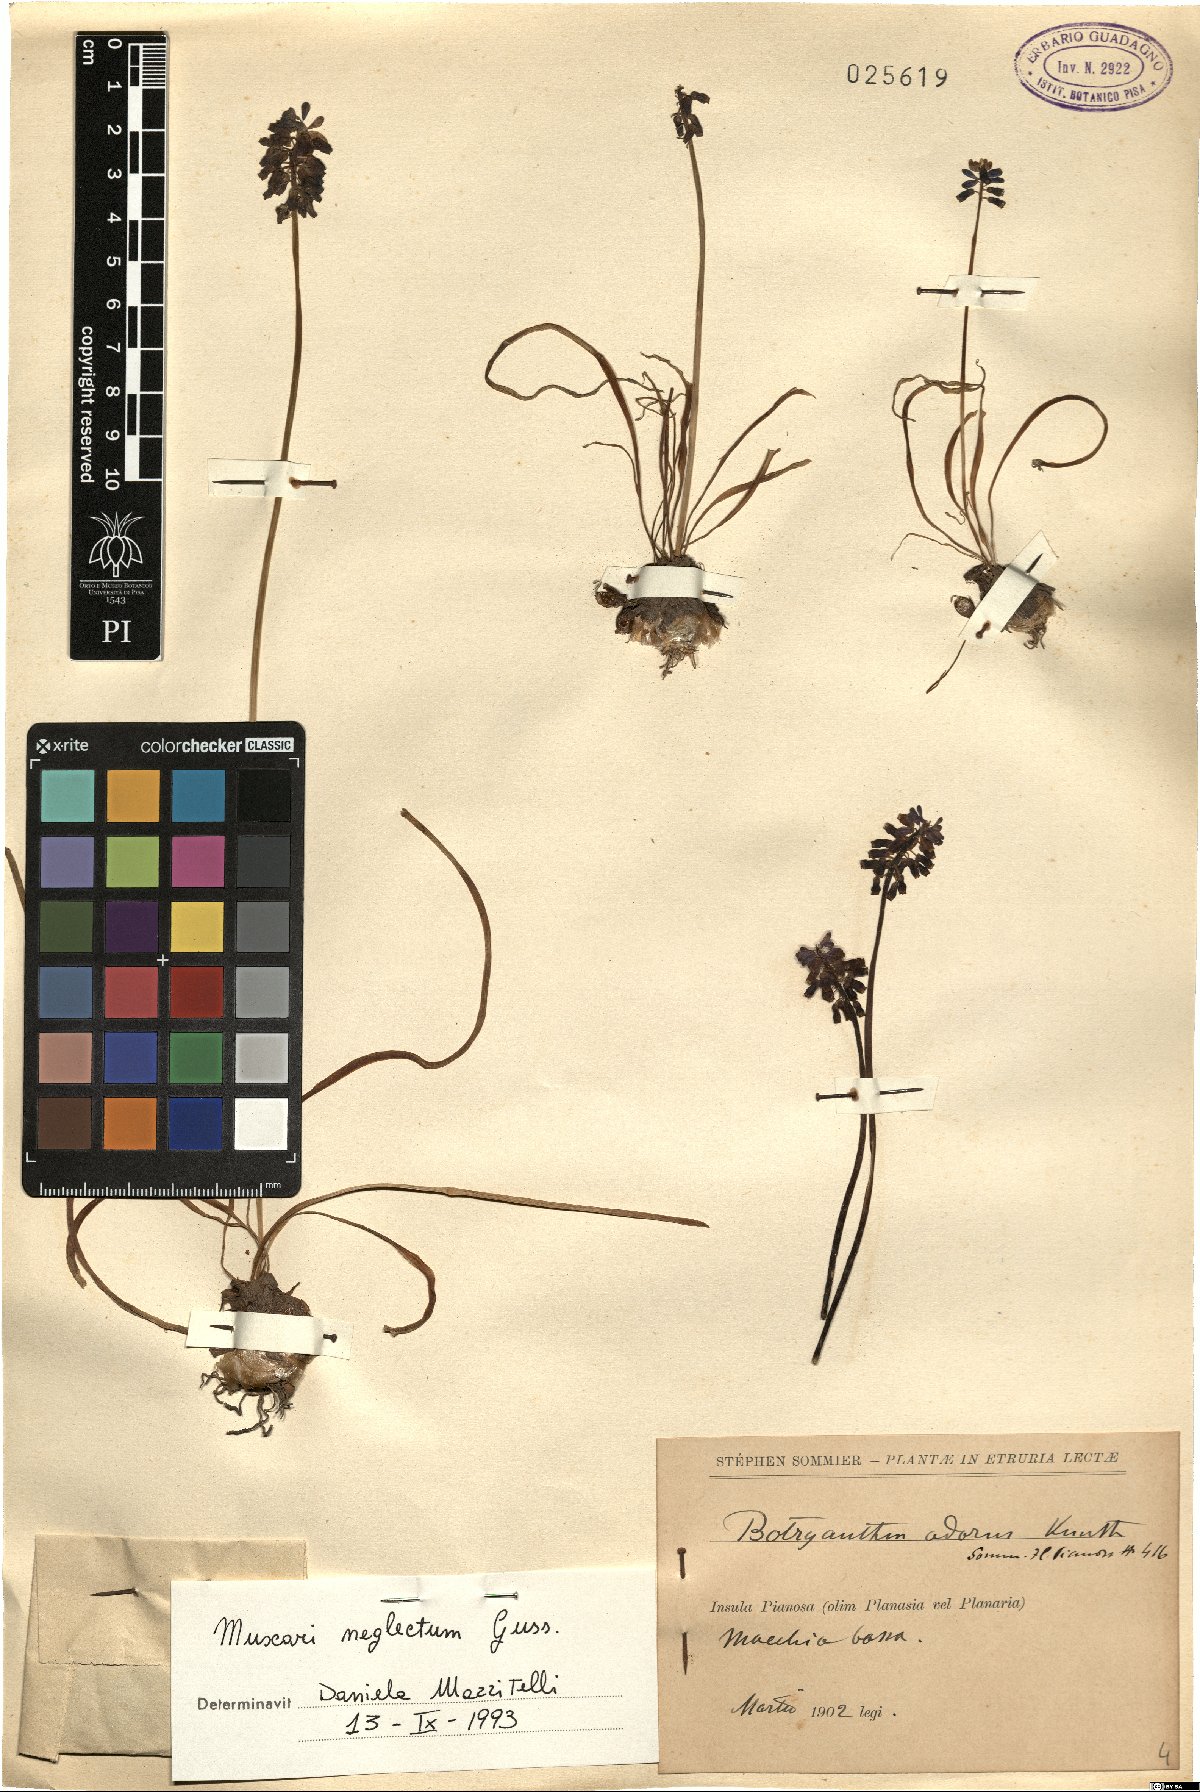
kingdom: Plantae
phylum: Tracheophyta
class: Liliopsida
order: Asparagales
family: Asparagaceae
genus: Muscari
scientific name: Muscari neglectum
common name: Grape-hyacinth
